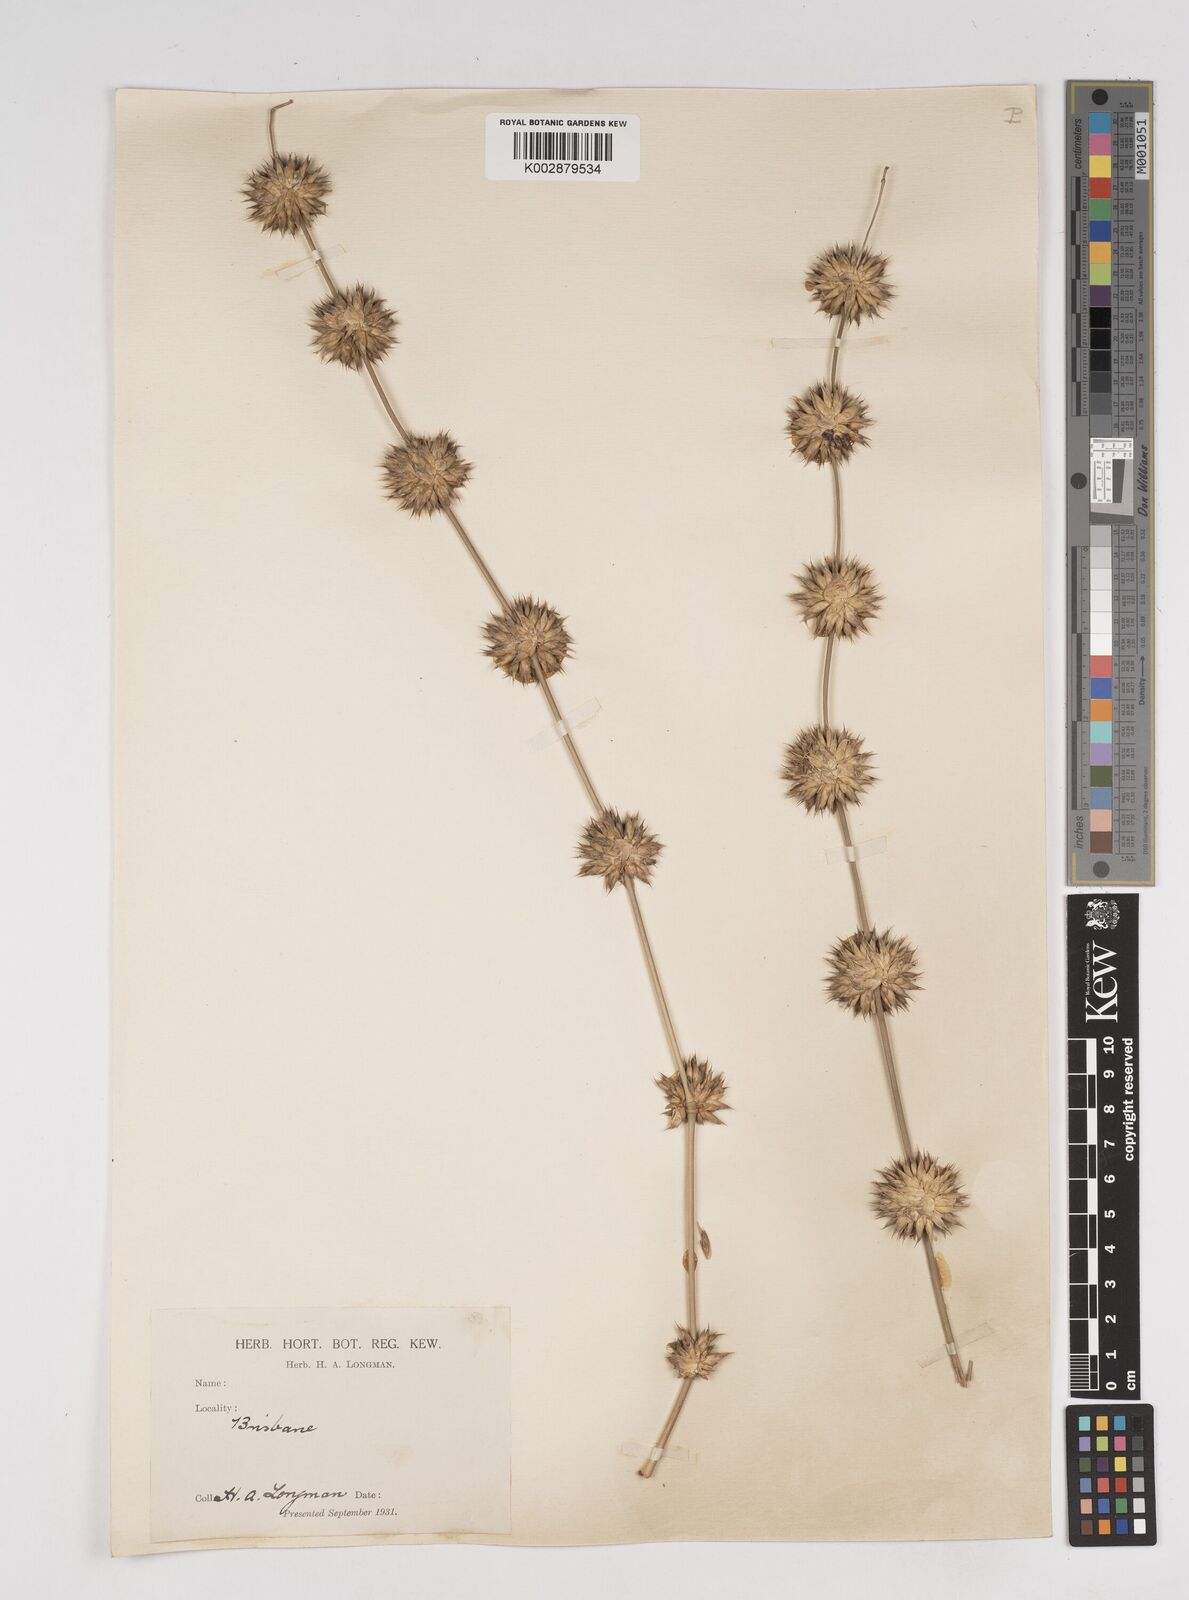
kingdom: Plantae
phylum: Tracheophyta
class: Liliopsida
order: Poales
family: Poaceae
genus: Dendrocalamus
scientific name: Dendrocalamus strictus
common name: Male bamboo
